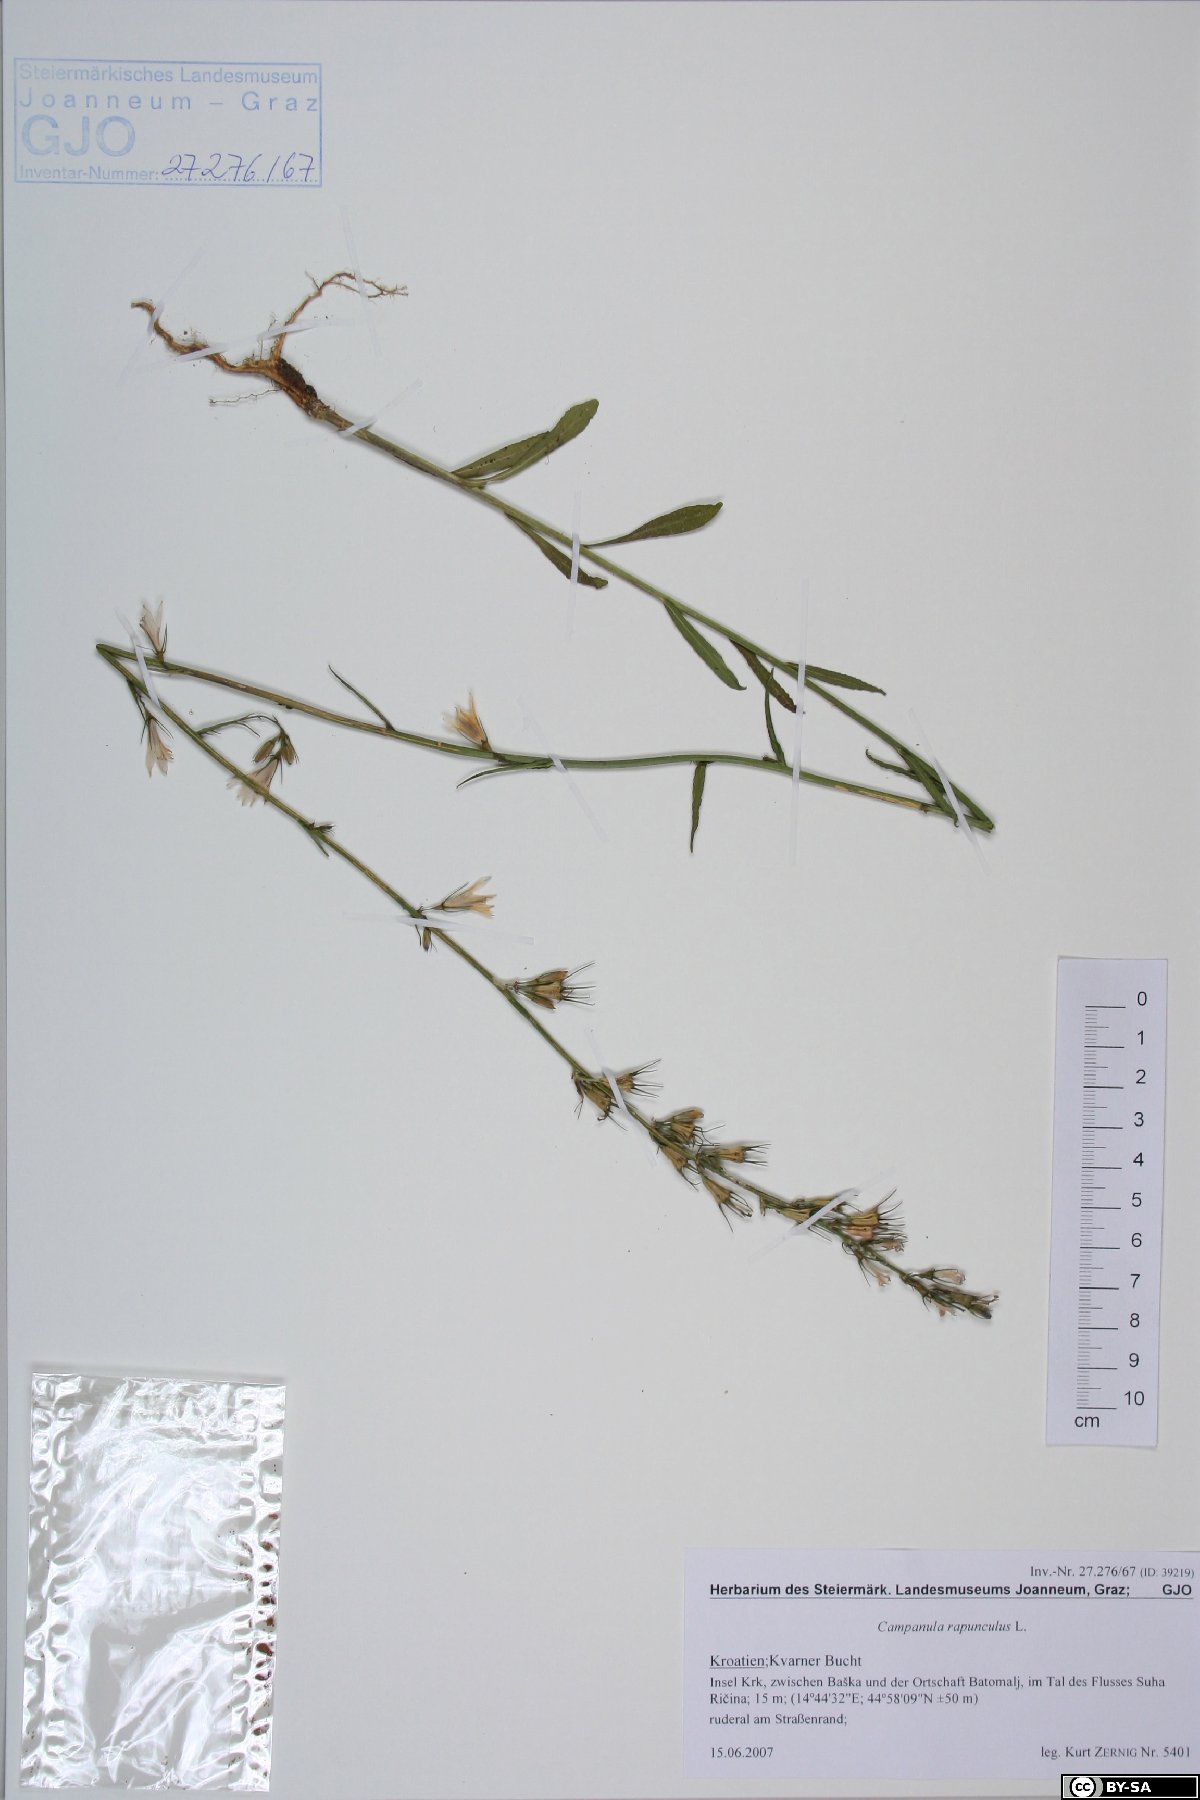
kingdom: Plantae
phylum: Tracheophyta
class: Magnoliopsida
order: Asterales
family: Campanulaceae
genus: Campanula
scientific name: Campanula rapunculus
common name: Rampion bellflower
